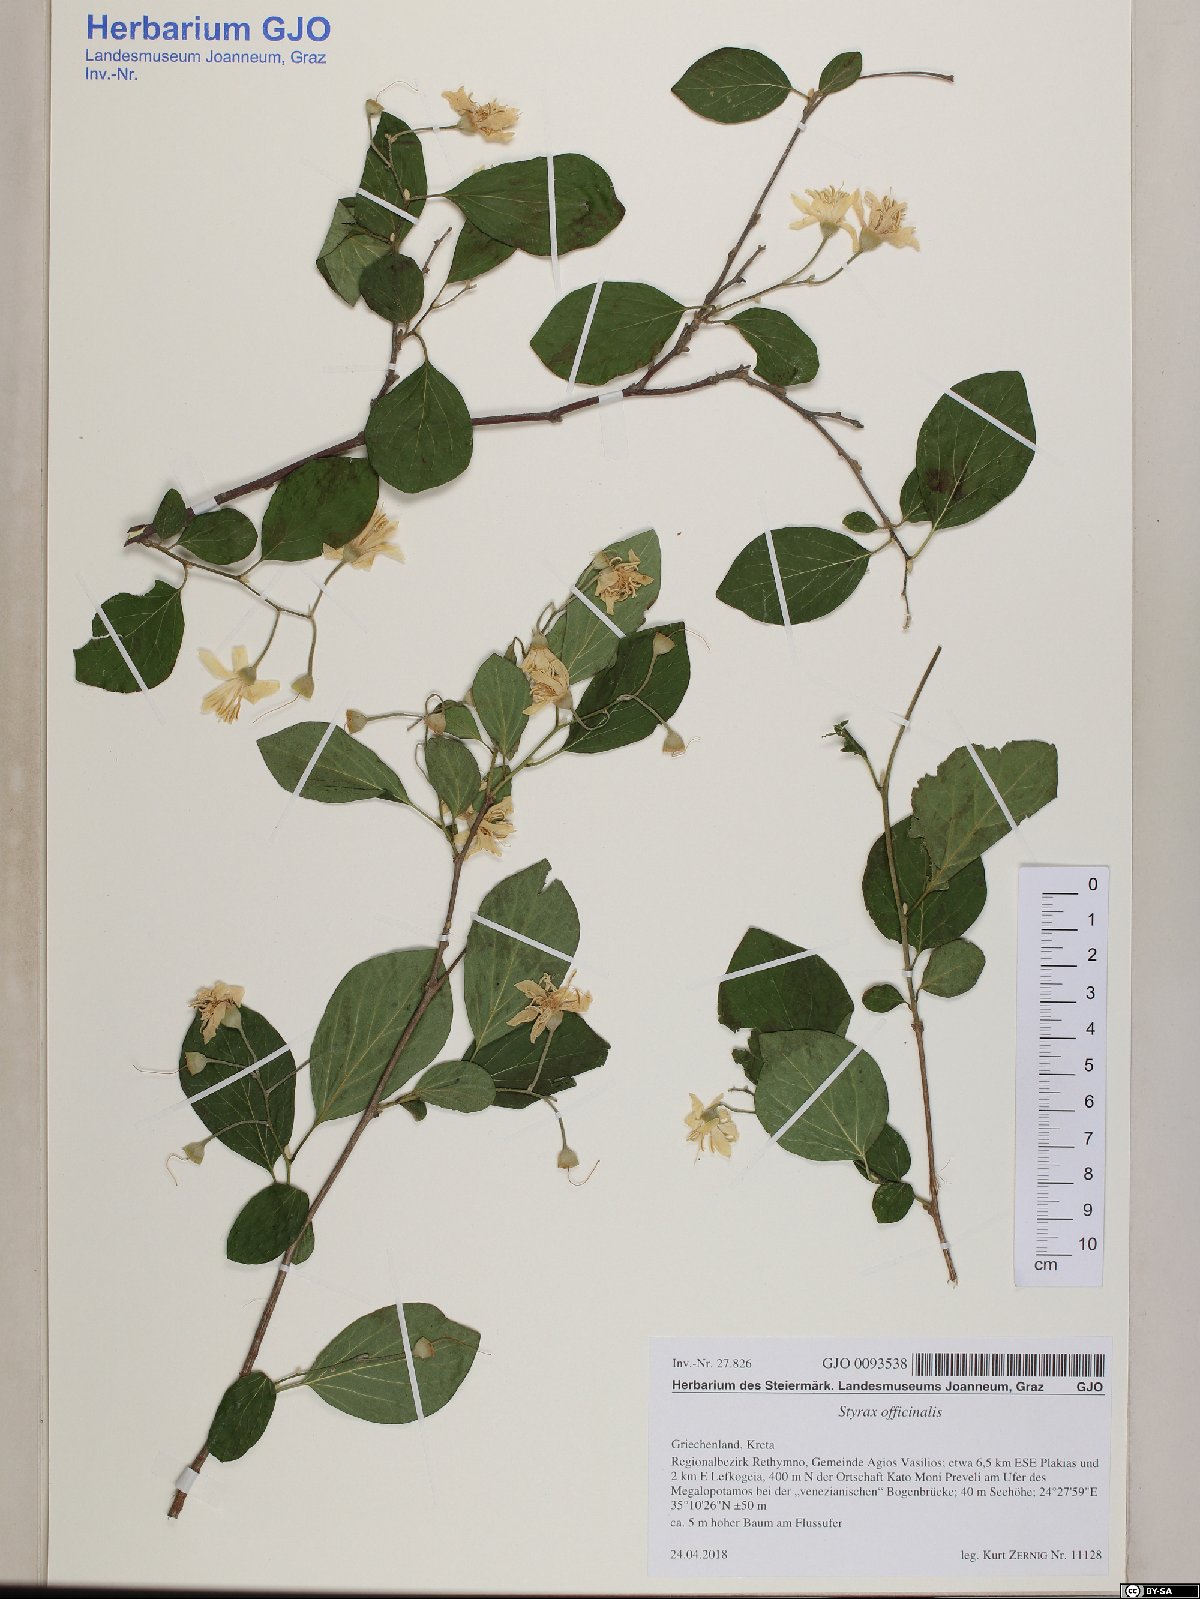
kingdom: Plantae
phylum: Tracheophyta
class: Magnoliopsida
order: Ericales
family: Styracaceae
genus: Styrax
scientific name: Styrax officinalis
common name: Storax
